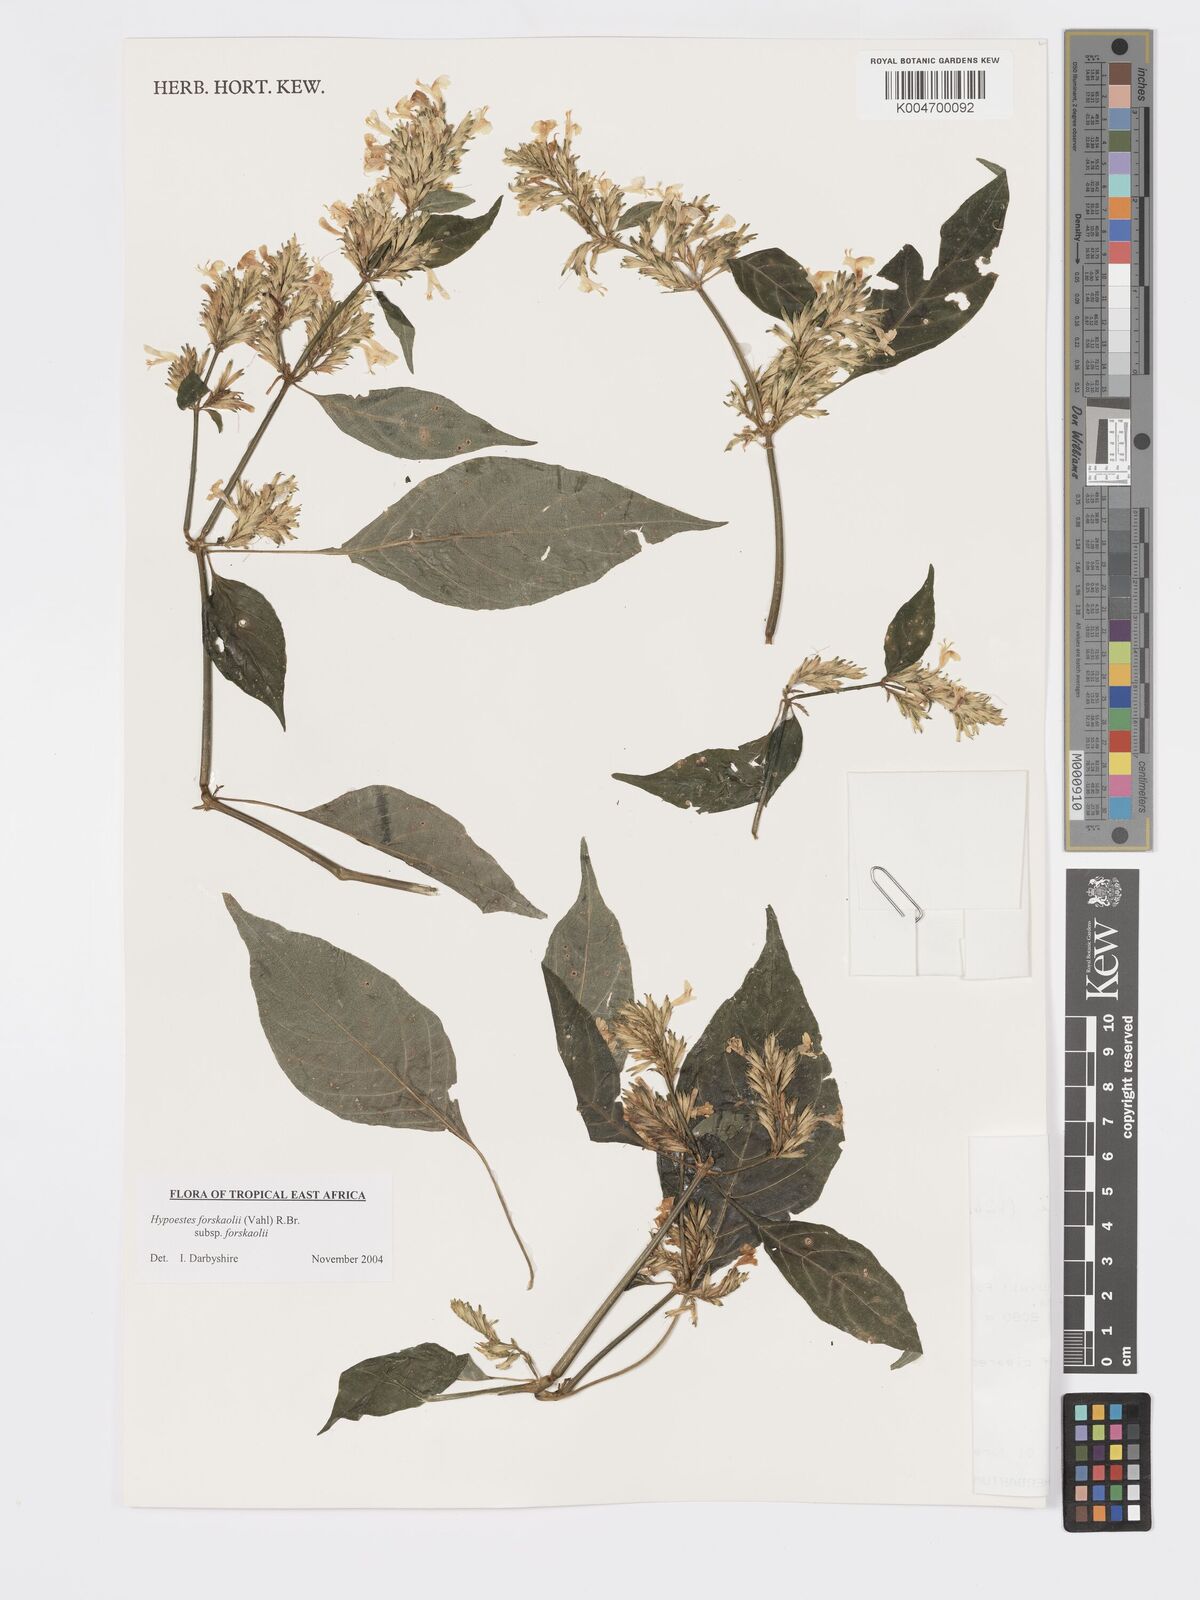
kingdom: Plantae
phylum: Tracheophyta
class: Magnoliopsida
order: Lamiales
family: Acanthaceae
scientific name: Acanthaceae
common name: Acanthaceae
